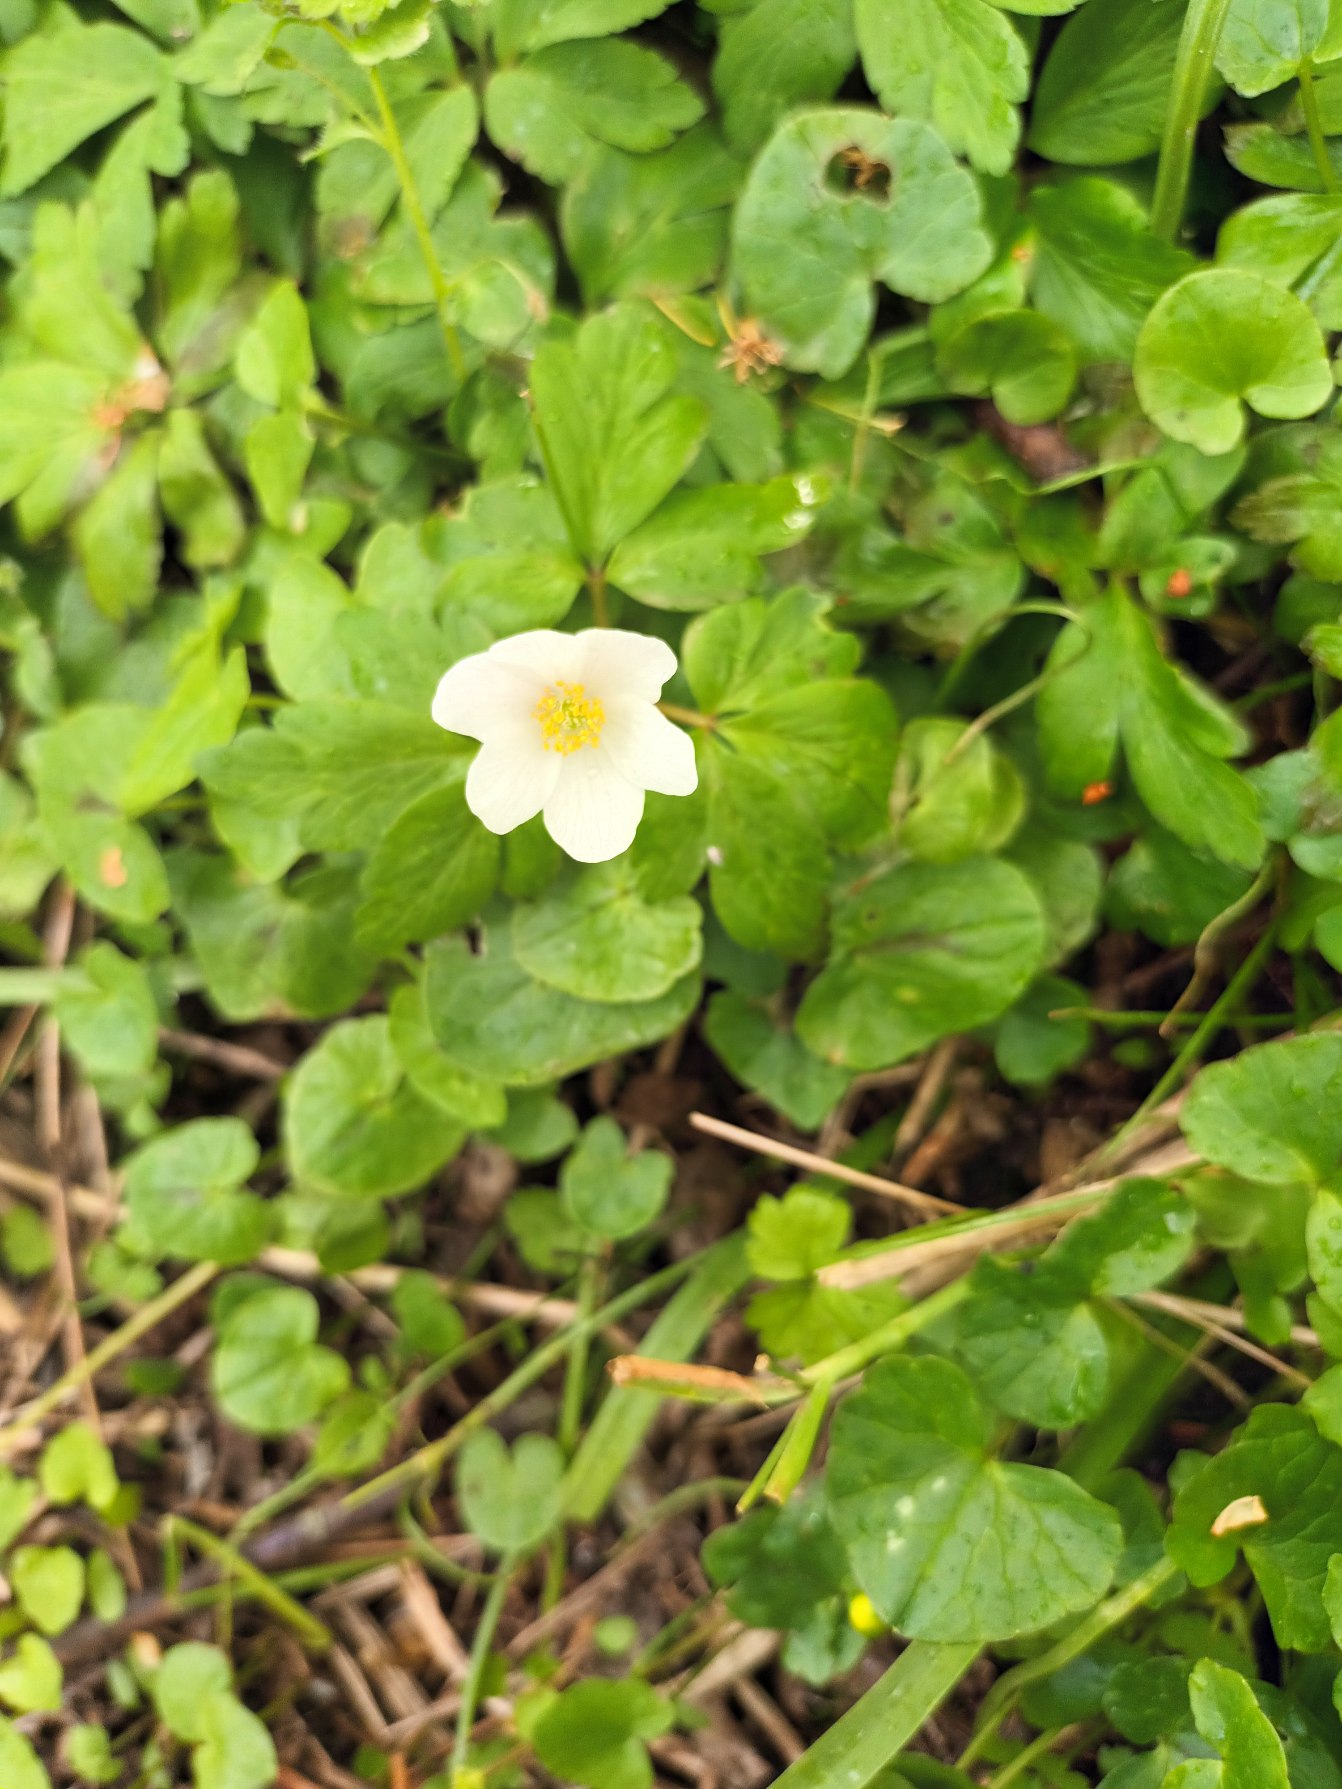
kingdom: Plantae
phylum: Tracheophyta
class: Magnoliopsida
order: Ranunculales
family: Ranunculaceae
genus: Anemone
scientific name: Anemone nemorosa
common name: Hvid anemone
